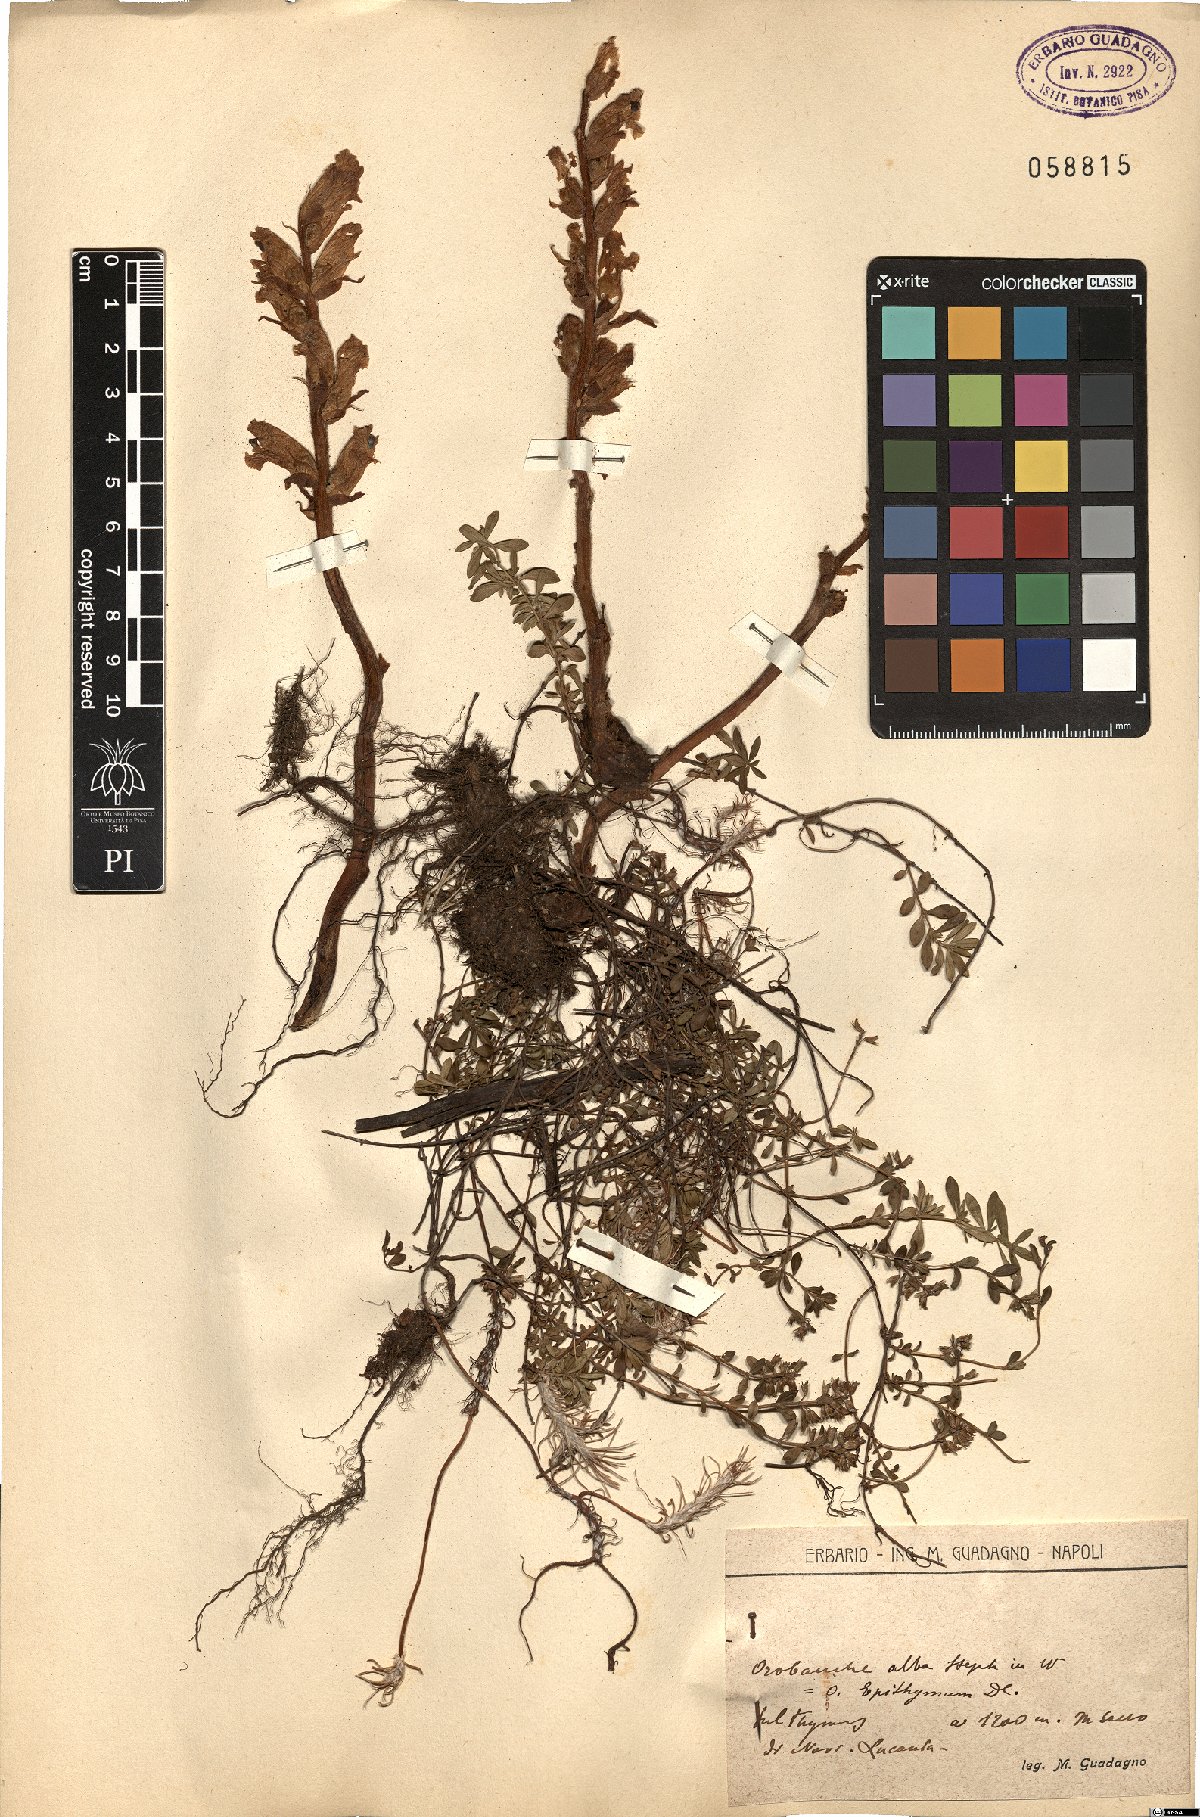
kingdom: Plantae
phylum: Tracheophyta
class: Magnoliopsida
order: Lamiales
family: Orobanchaceae
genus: Orobanche
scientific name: Orobanche alba
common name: Thyme broomrape
